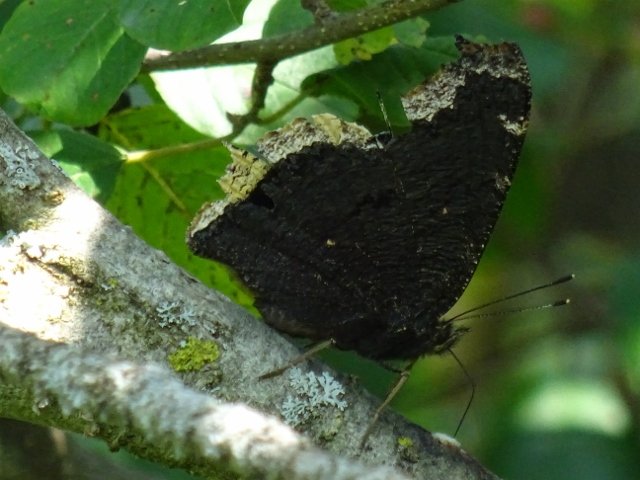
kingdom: Animalia
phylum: Arthropoda
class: Insecta
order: Lepidoptera
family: Nymphalidae
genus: Nymphalis
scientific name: Nymphalis antiopa
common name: Mourning Cloak
